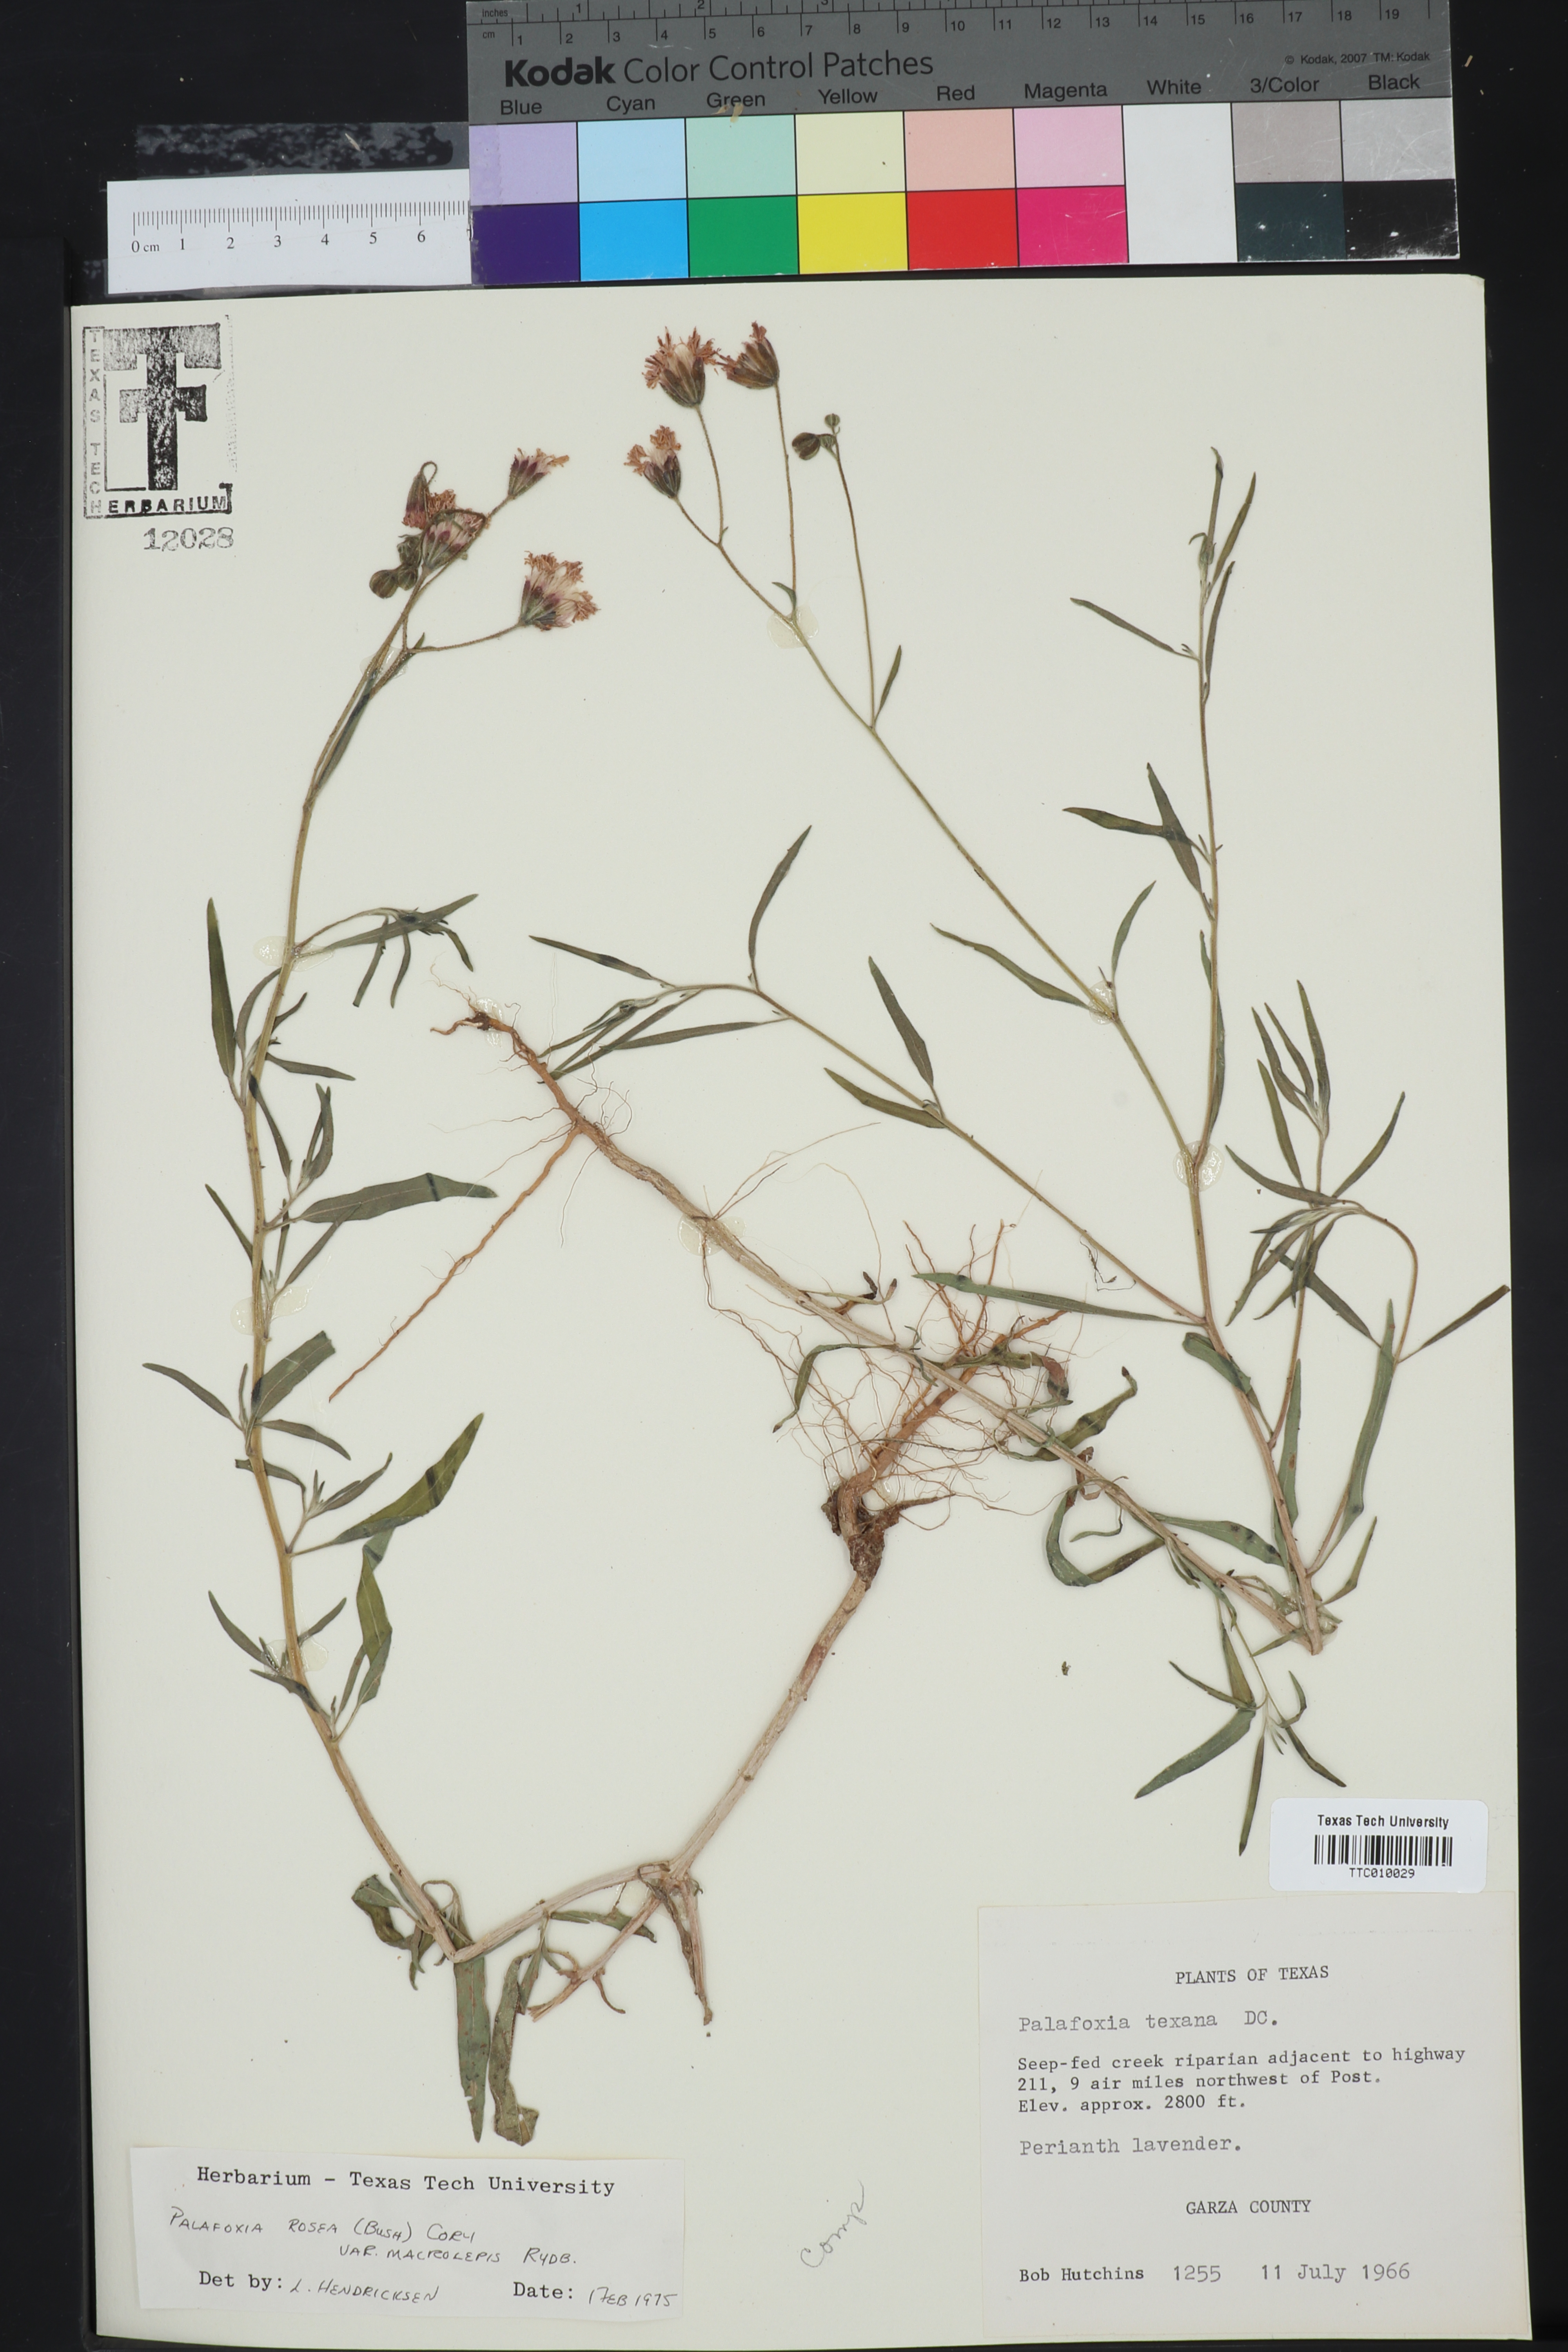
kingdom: Plantae
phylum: Tracheophyta
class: Magnoliopsida
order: Asterales
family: Asteraceae
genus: Palafoxia
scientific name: Palafoxia rosea
